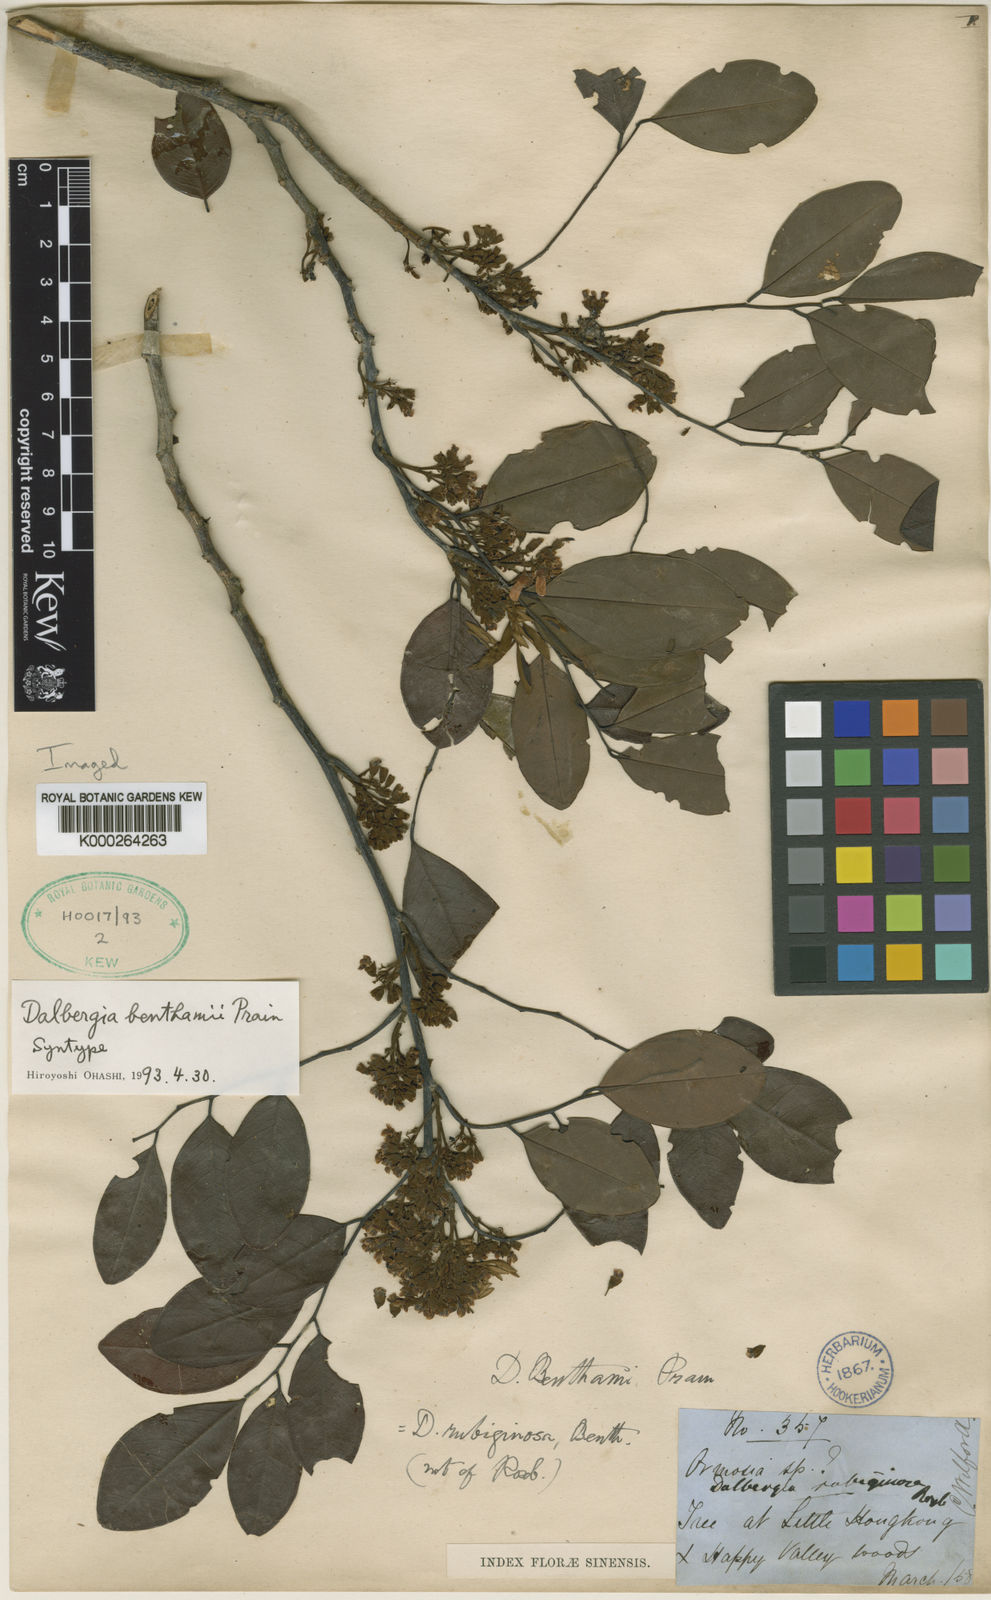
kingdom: Plantae
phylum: Tracheophyta
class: Magnoliopsida
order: Fabales
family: Fabaceae
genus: Dalbergia
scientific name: Dalbergia benthamii
